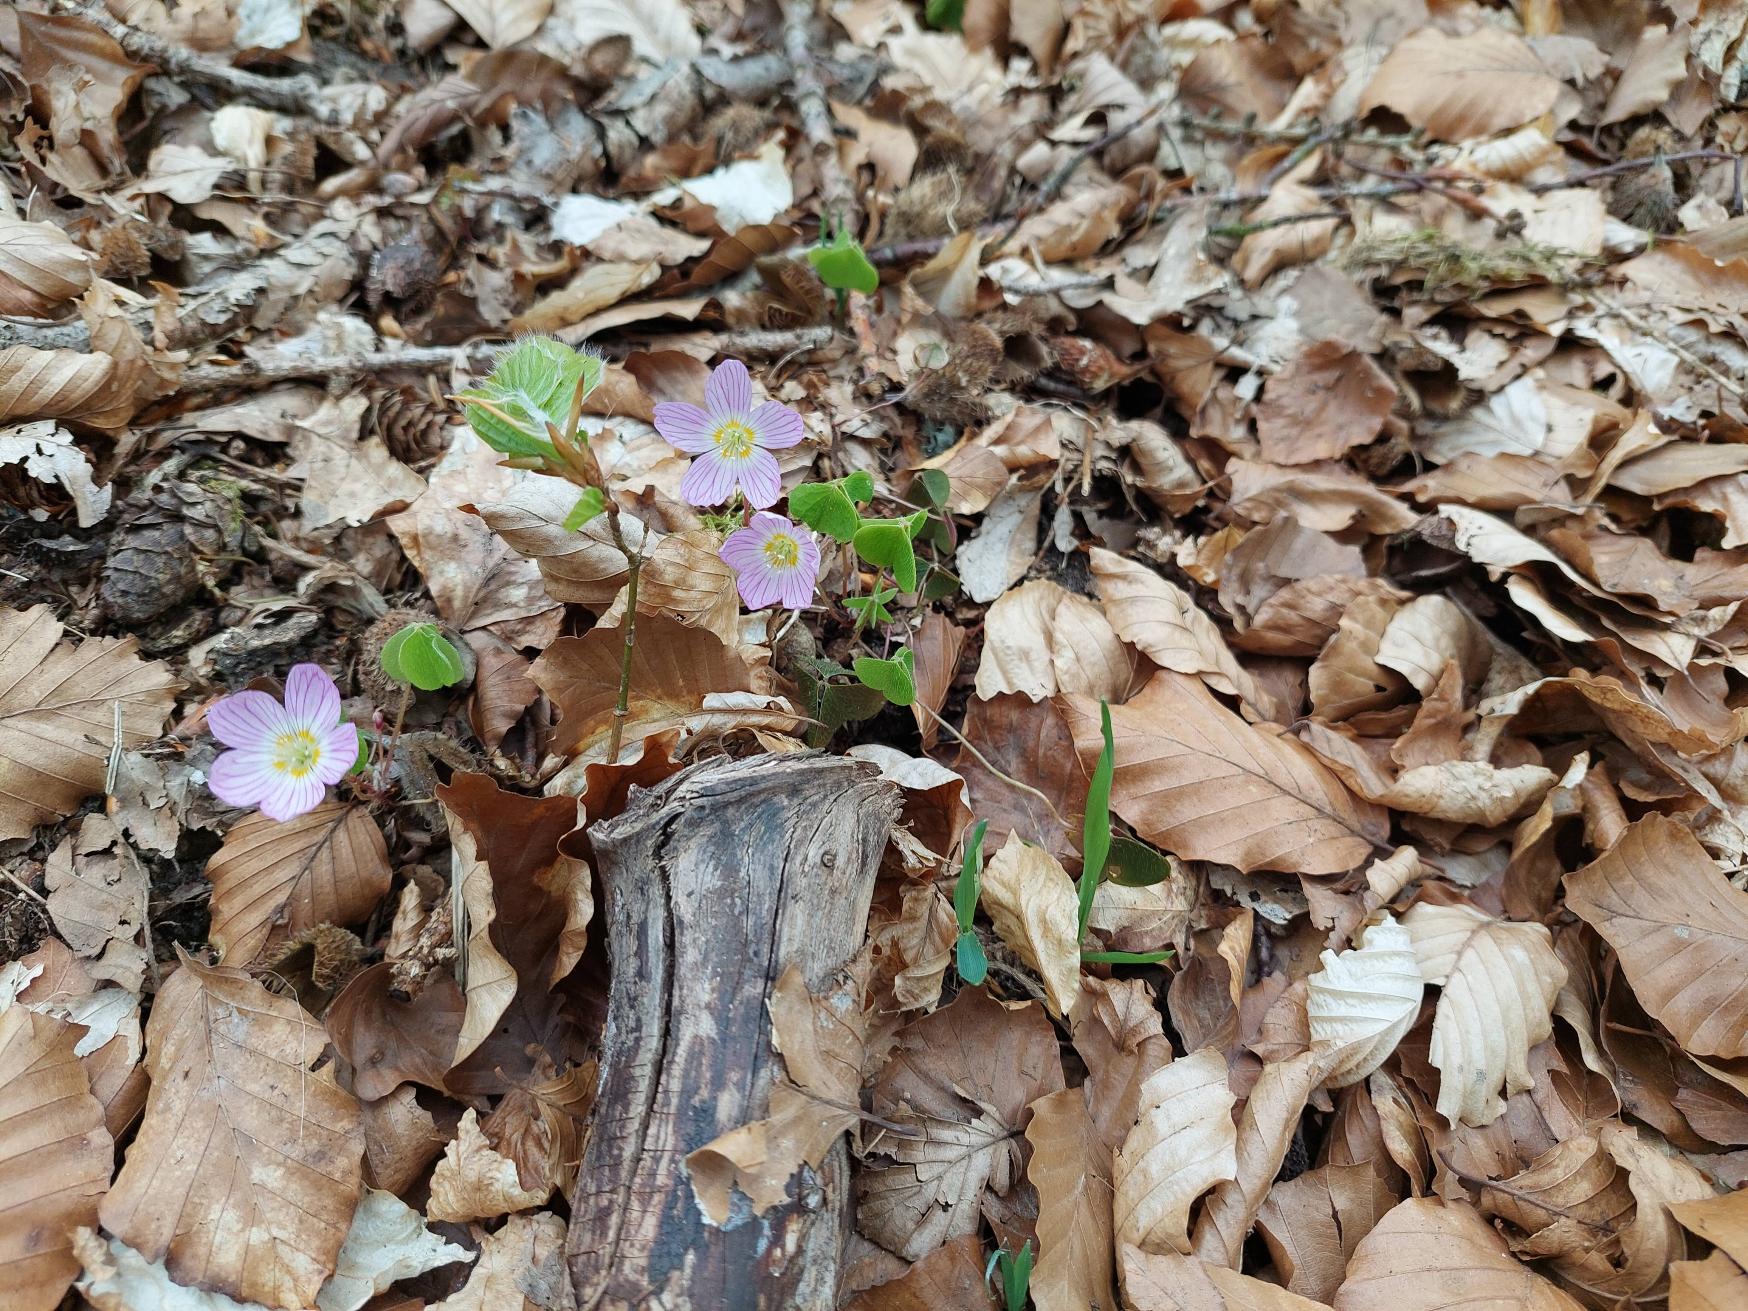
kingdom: Plantae
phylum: Tracheophyta
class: Magnoliopsida
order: Oxalidales
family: Oxalidaceae
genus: Oxalis
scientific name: Oxalis acetosella
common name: Skovsyre
